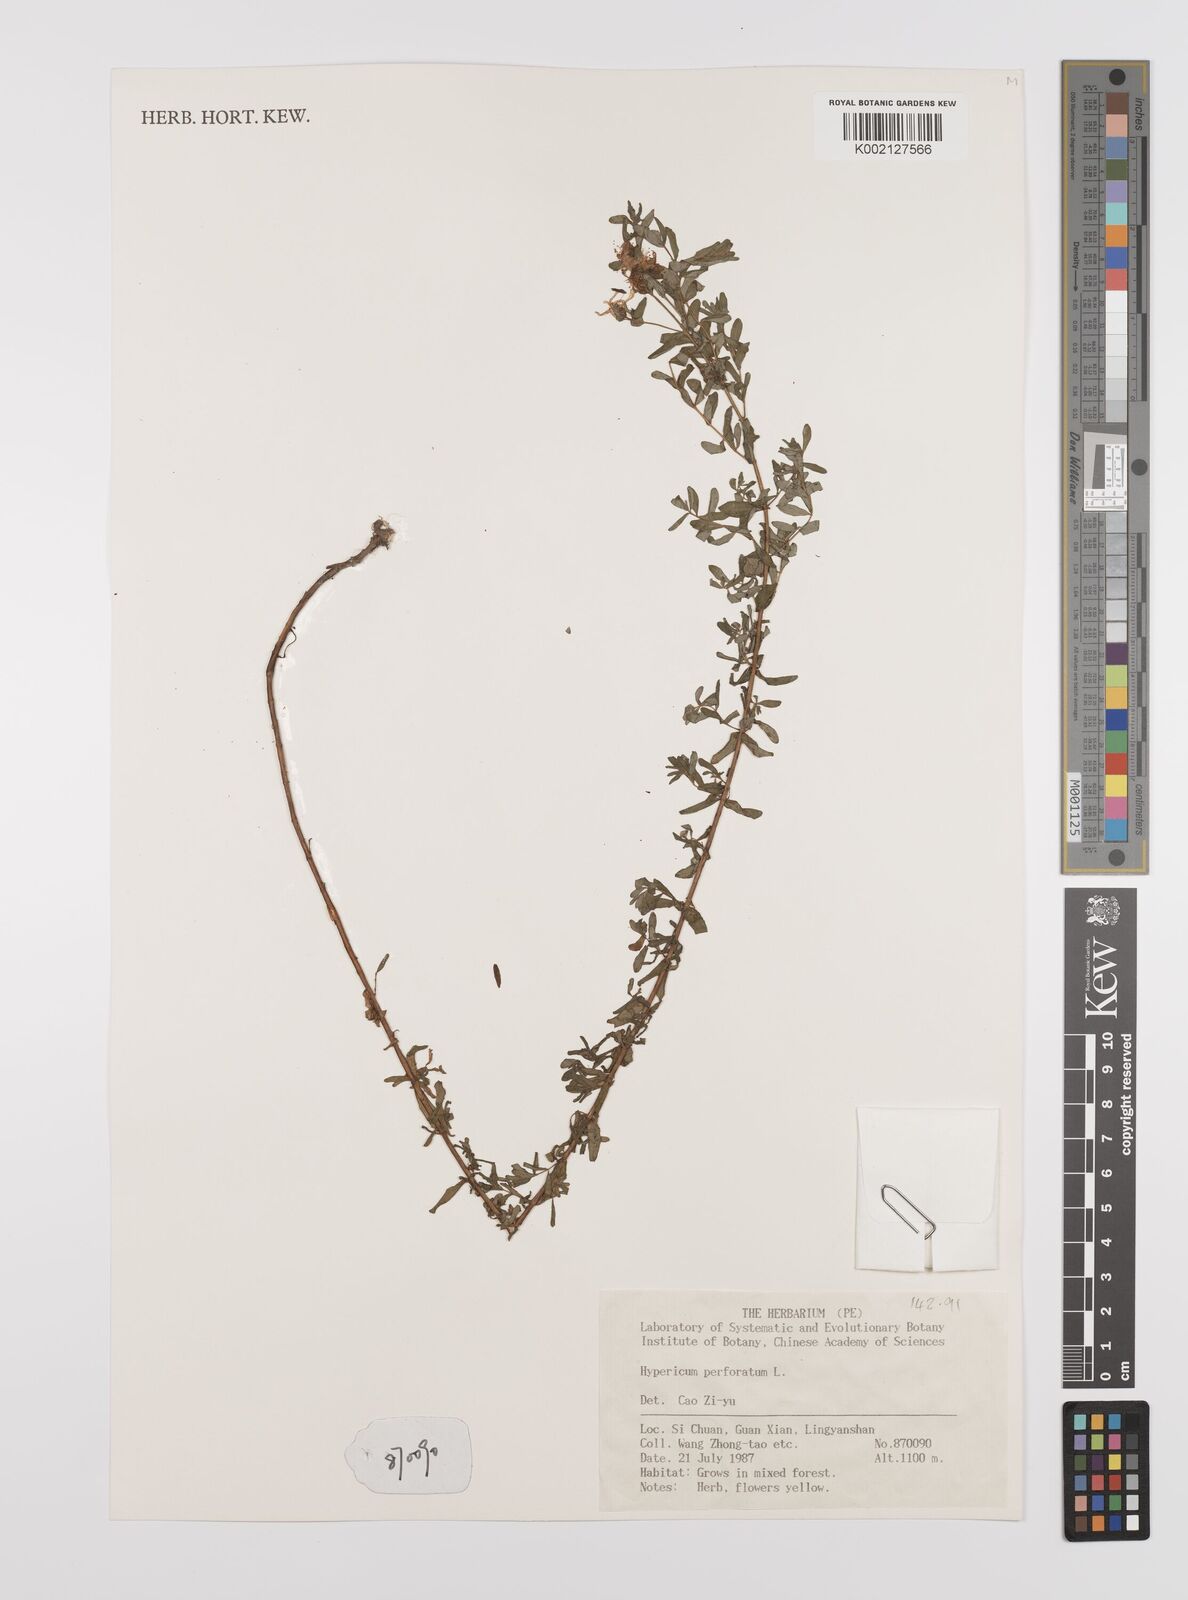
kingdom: Plantae
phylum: Tracheophyta
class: Magnoliopsida
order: Malpighiales
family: Hypericaceae
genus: Hypericum
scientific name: Hypericum perforatum
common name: Common st. johnswort
